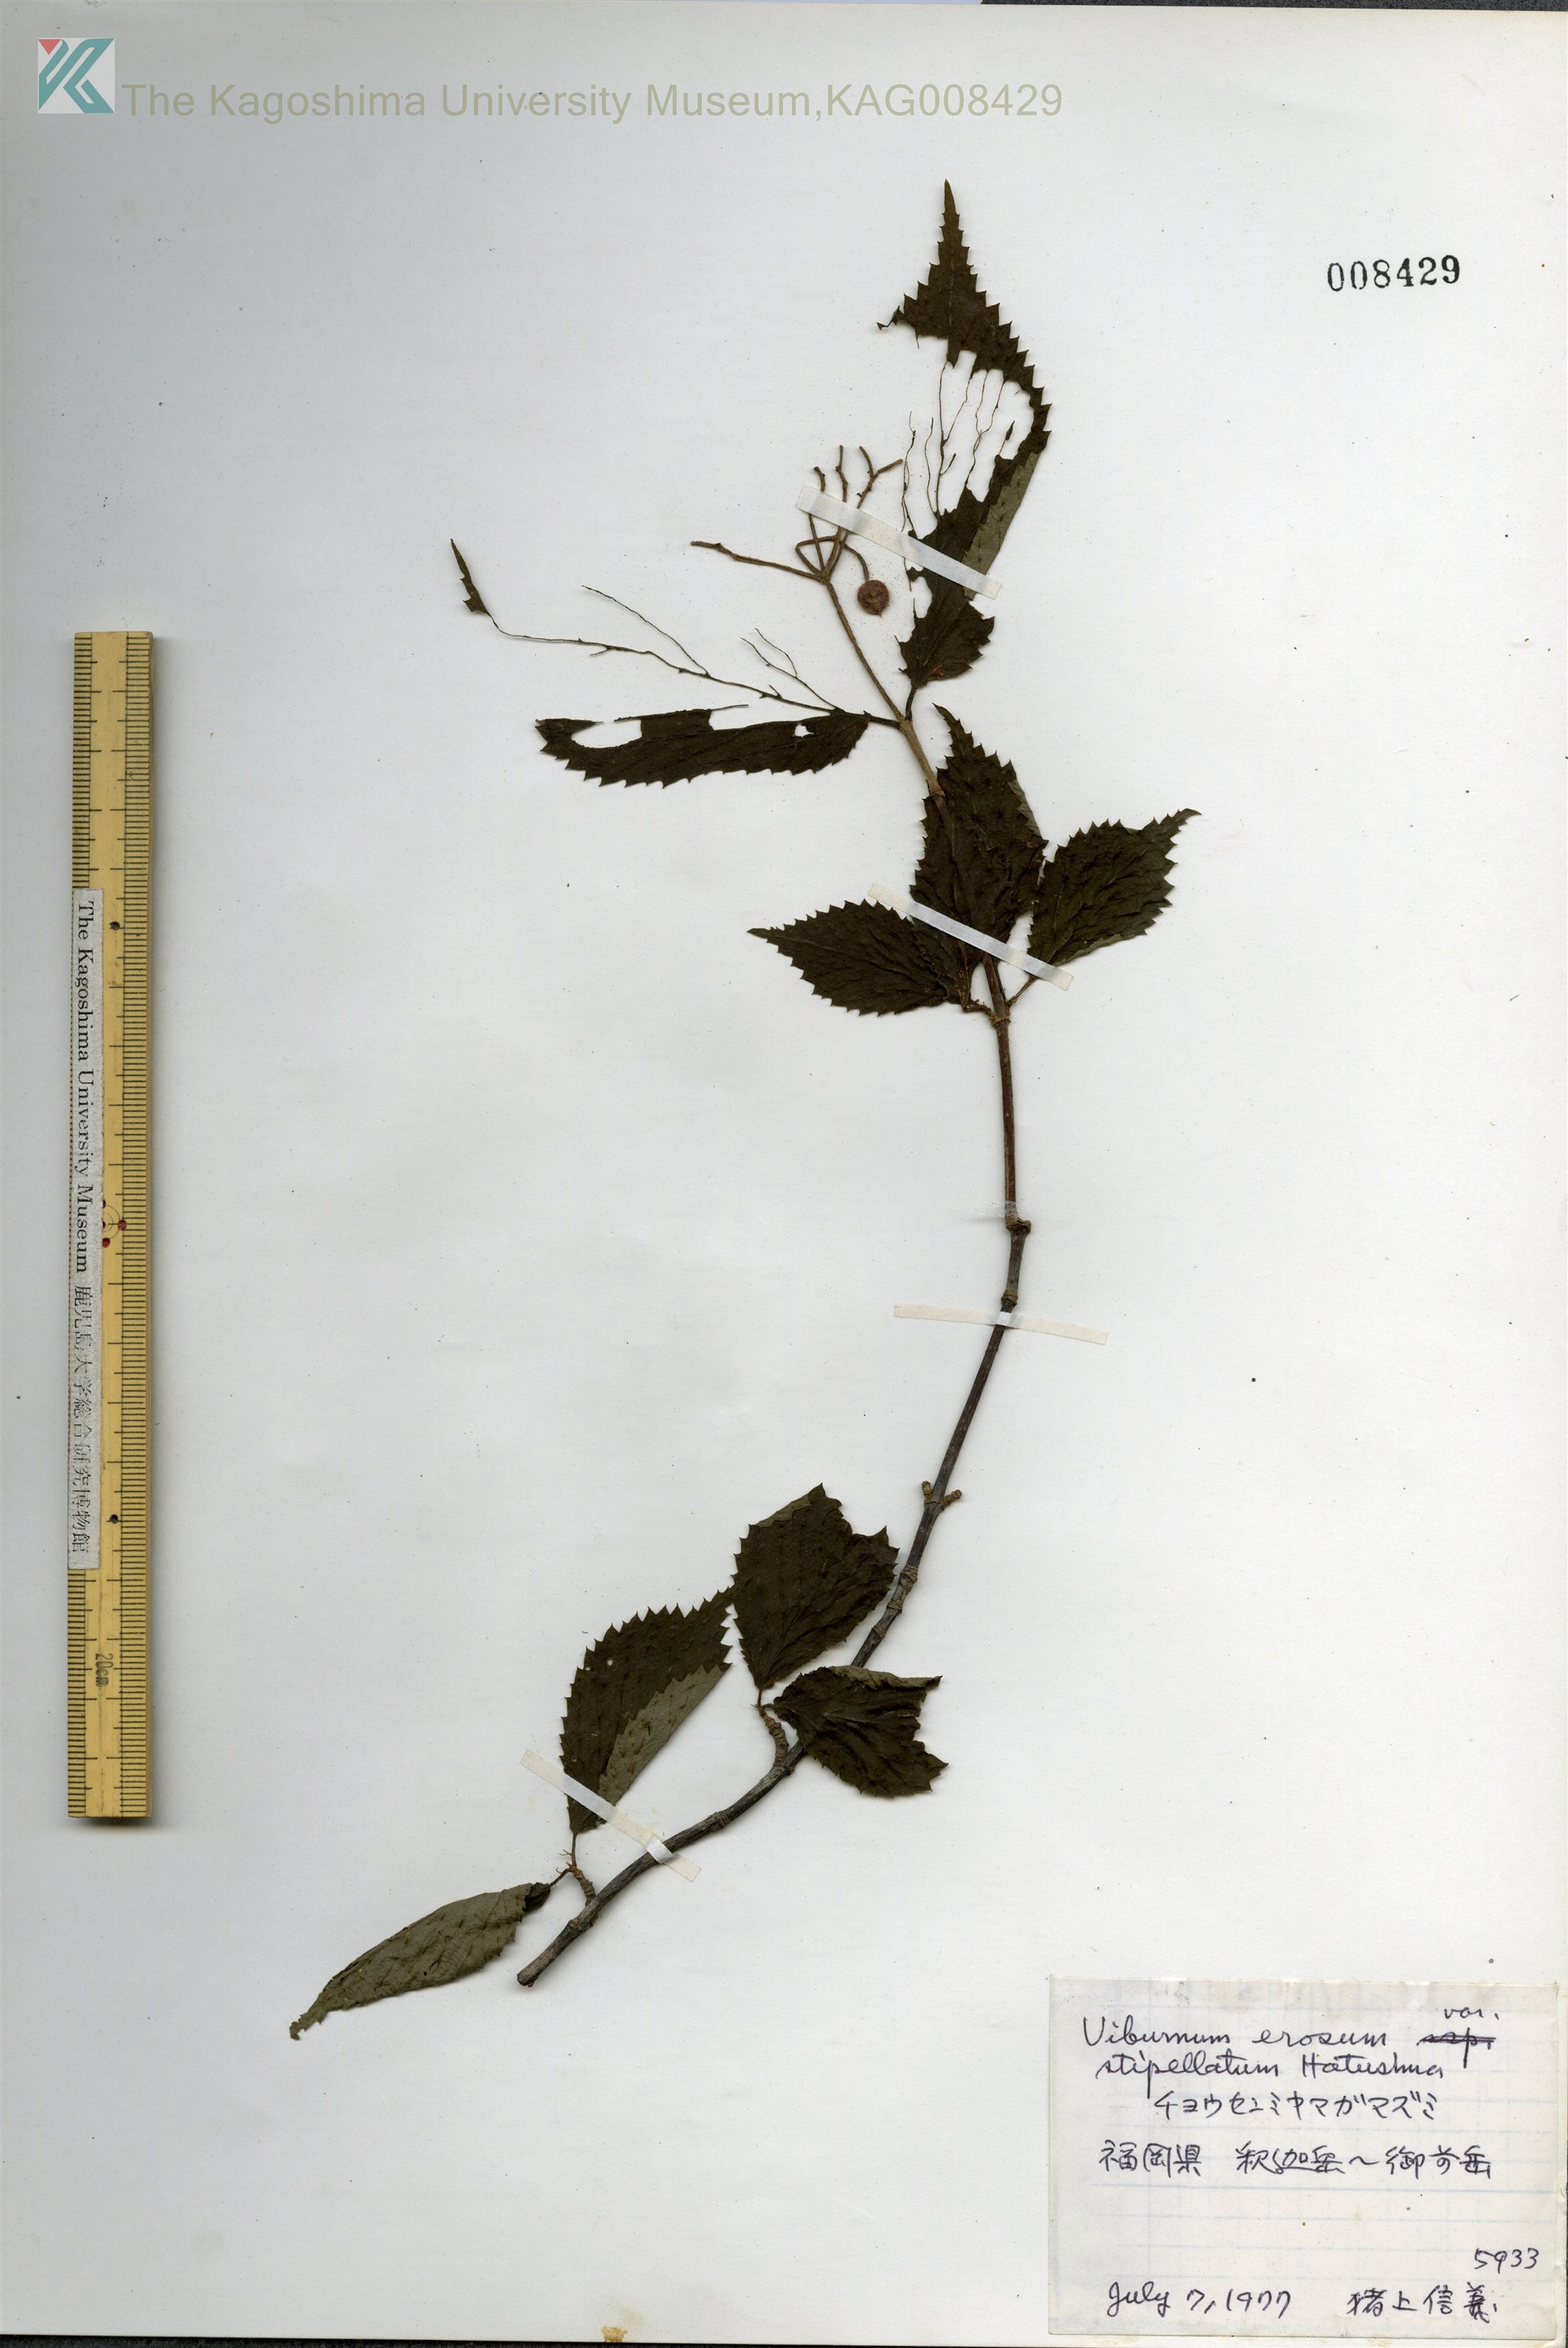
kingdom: Plantae
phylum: Tracheophyta
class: Magnoliopsida
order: Dipsacales
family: Viburnaceae
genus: Viburnum
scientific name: Viburnum erosum
